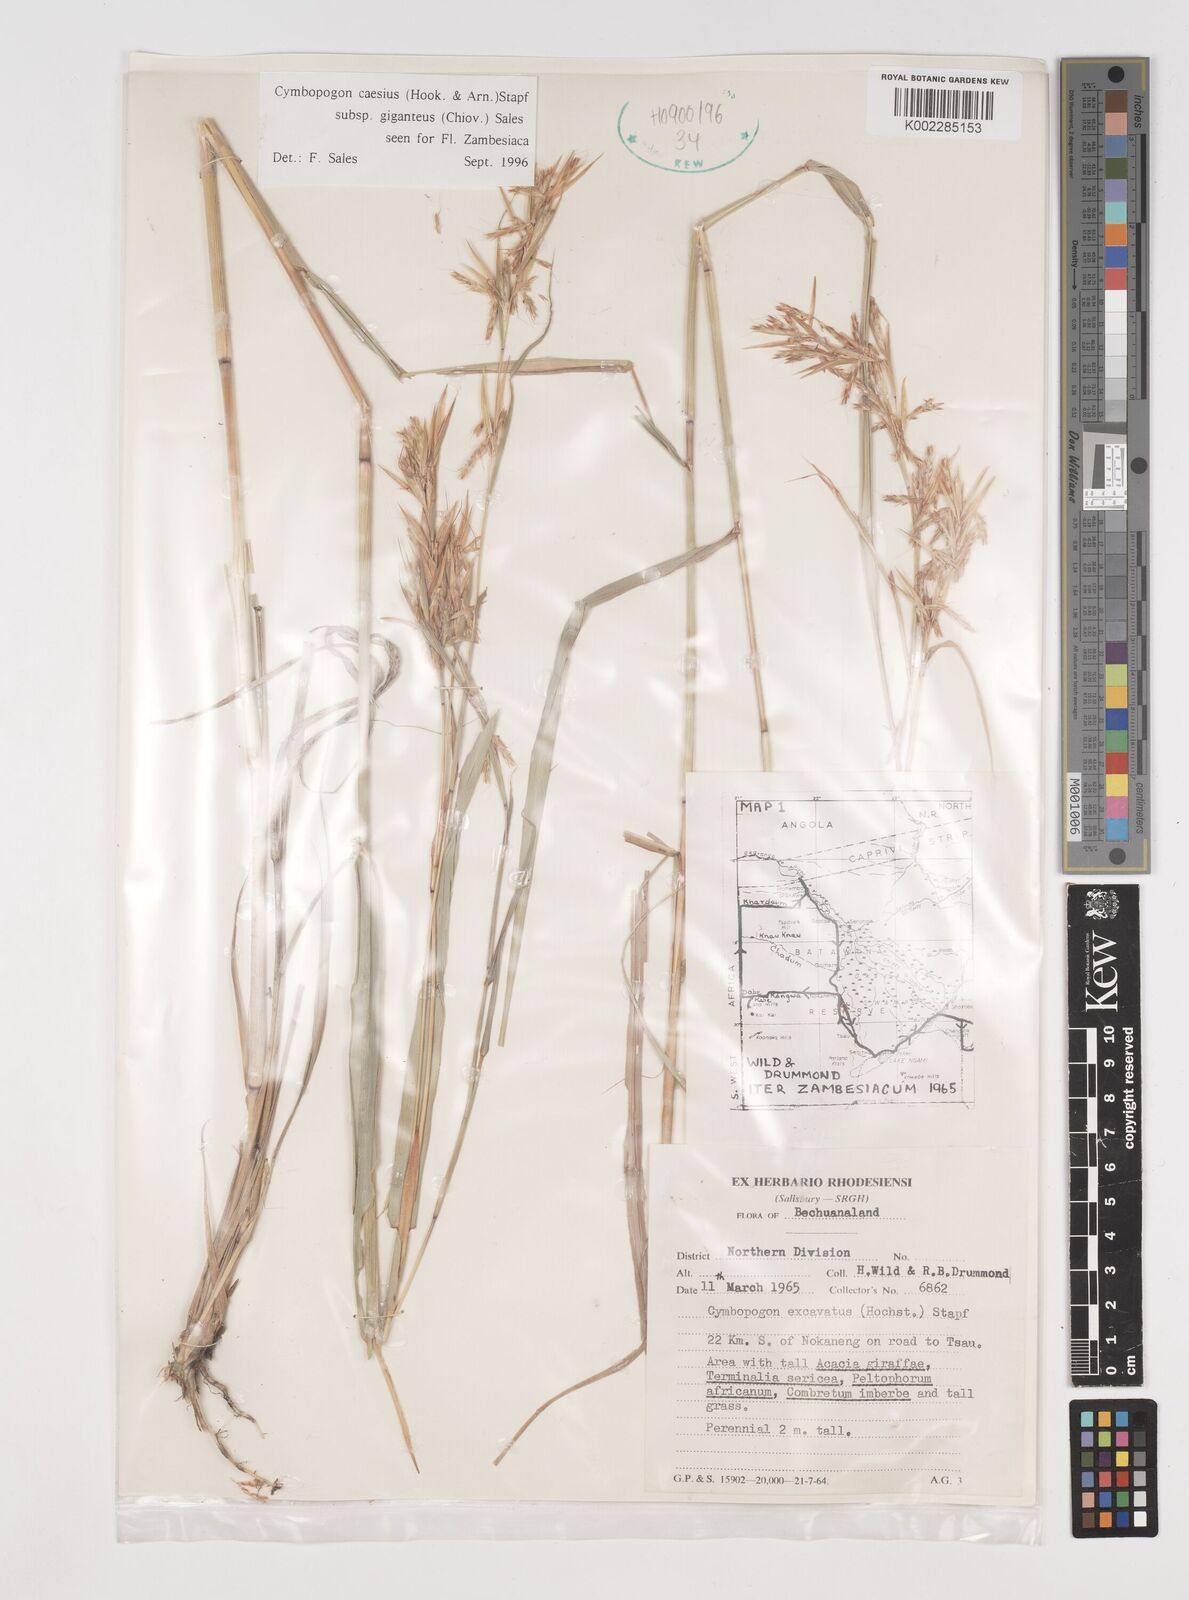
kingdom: Plantae
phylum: Tracheophyta
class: Liliopsida
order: Poales
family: Poaceae
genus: Cymbopogon
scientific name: Cymbopogon giganteus
